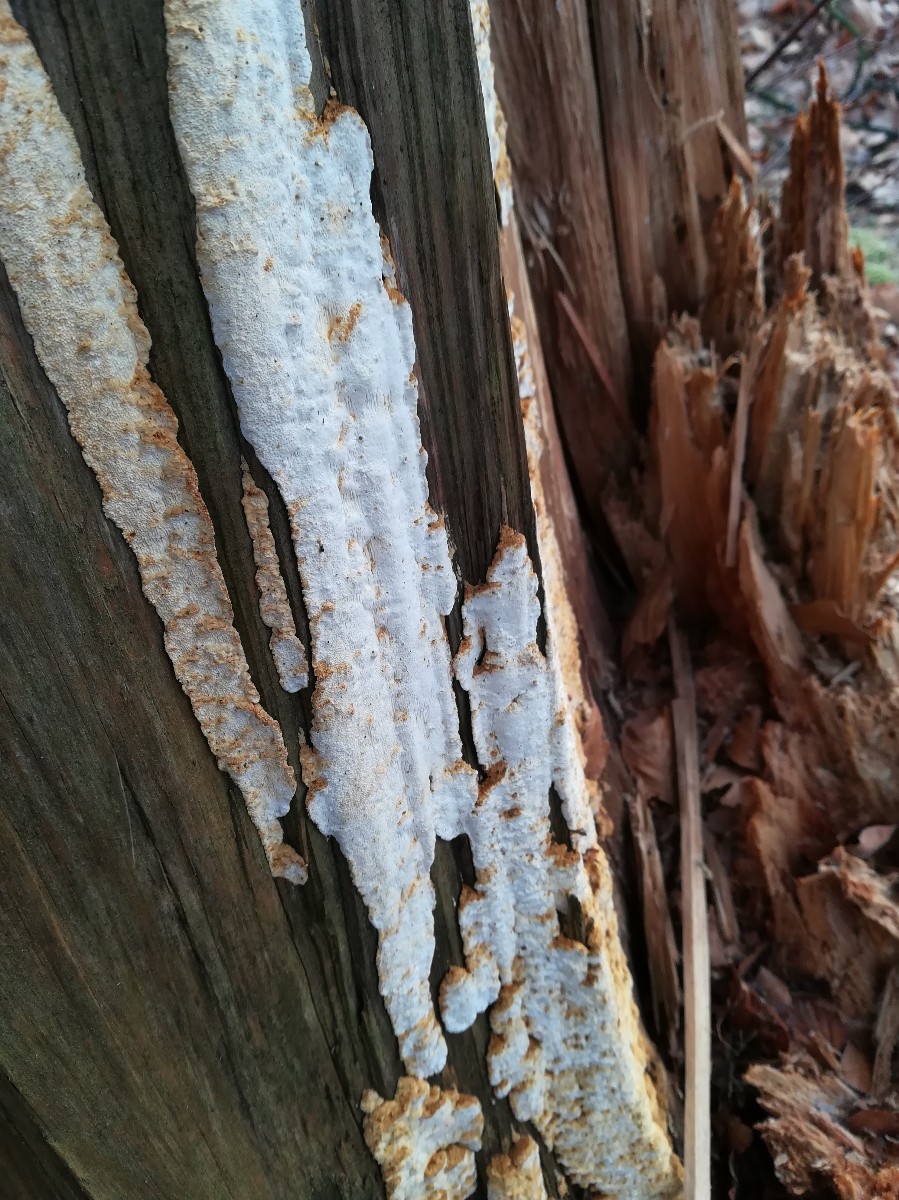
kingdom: Fungi
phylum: Basidiomycota
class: Agaricomycetes
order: Polyporales
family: Fomitopsidaceae
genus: Neoantrodia
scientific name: Neoantrodia serialis
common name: række-sejporesvamp
